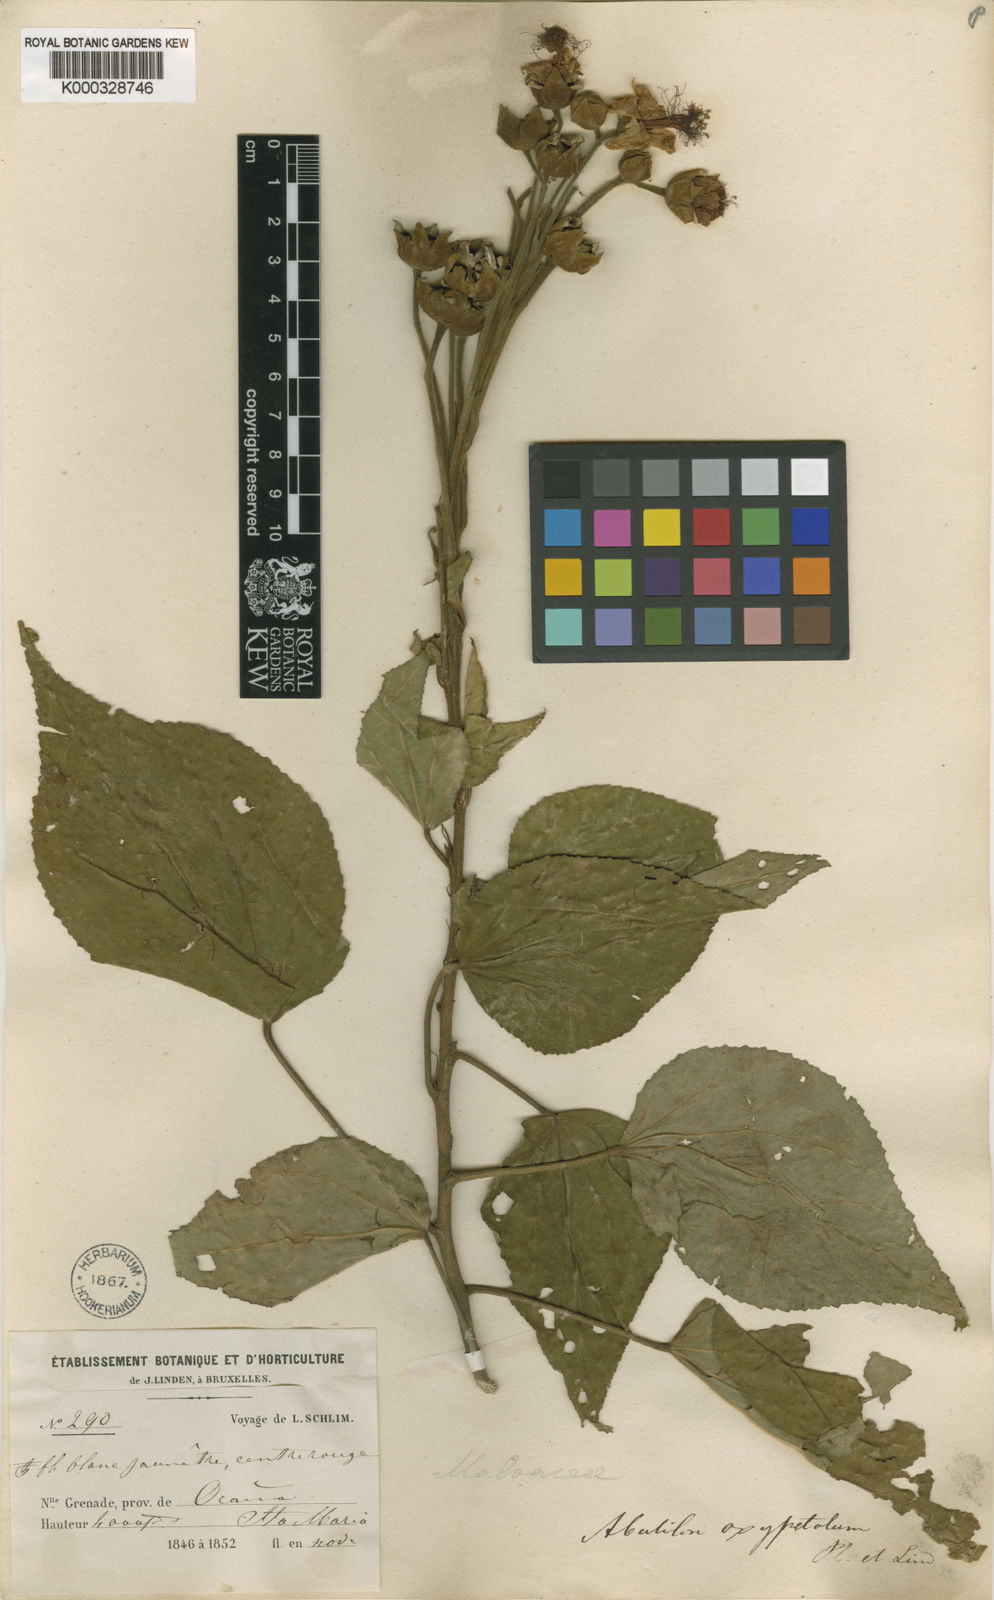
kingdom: Plantae
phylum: Tracheophyta
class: Magnoliopsida
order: Malvales
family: Malvaceae
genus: Dendrosida
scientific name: Dendrosida oxypetala
